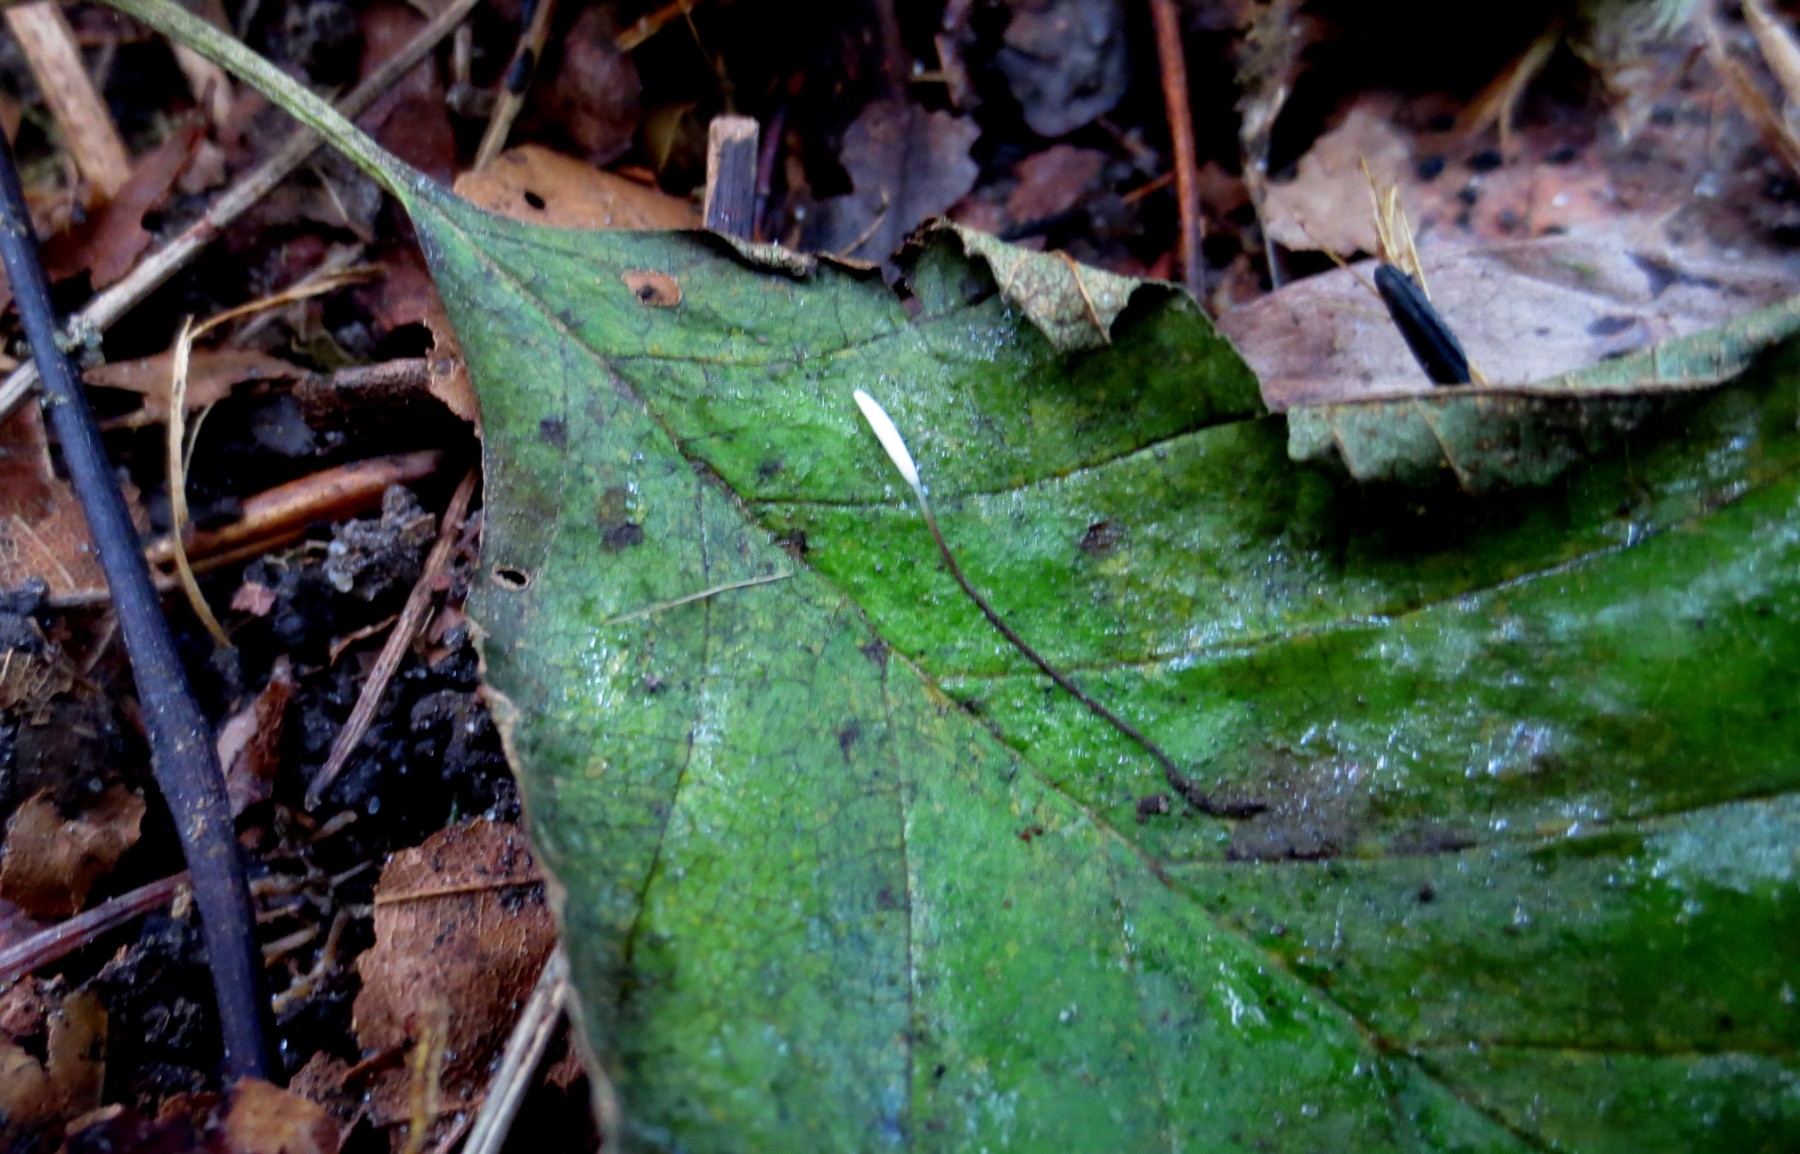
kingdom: Fungi
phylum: Basidiomycota
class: Agaricomycetes
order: Agaricales
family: Typhulaceae
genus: Typhula
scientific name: Typhula erythropus
